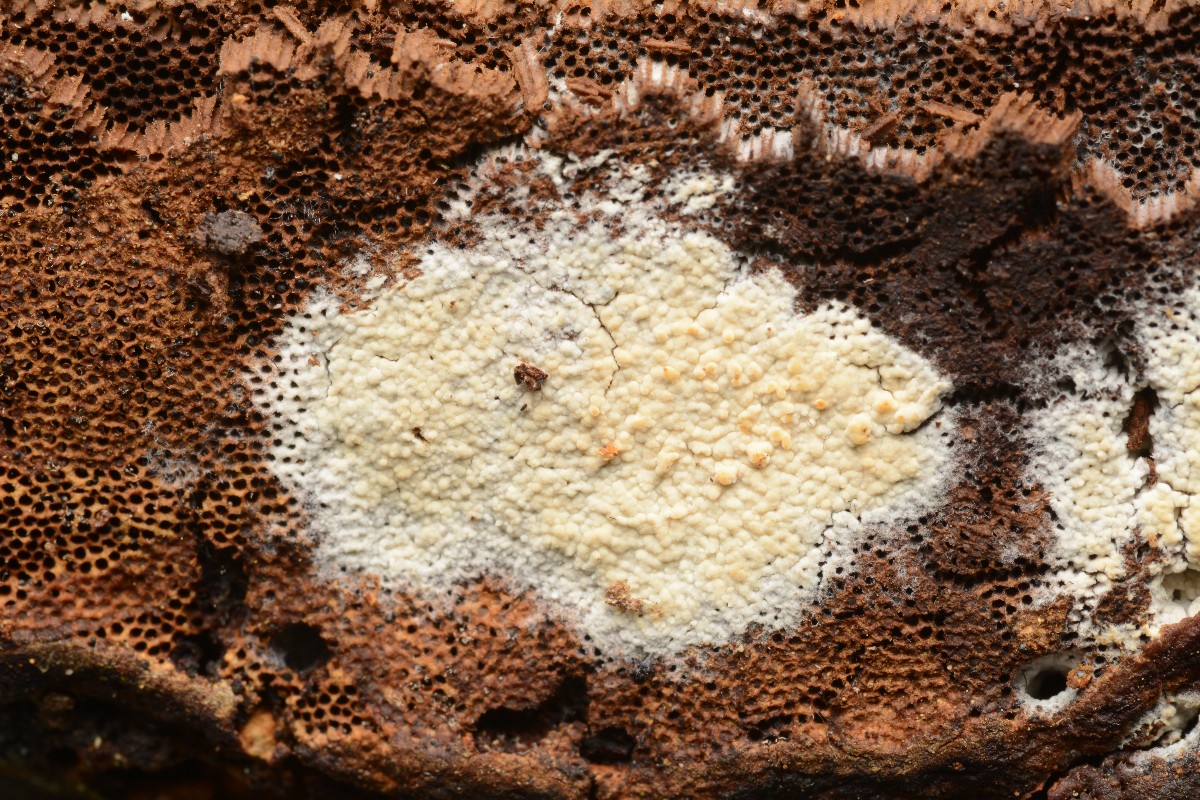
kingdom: Fungi
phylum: Basidiomycota
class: Agaricomycetes
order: Cantharellales
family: Hydnaceae
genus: Sistotrema
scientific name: Sistotrema sernanderi
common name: sur kroneskorpe
